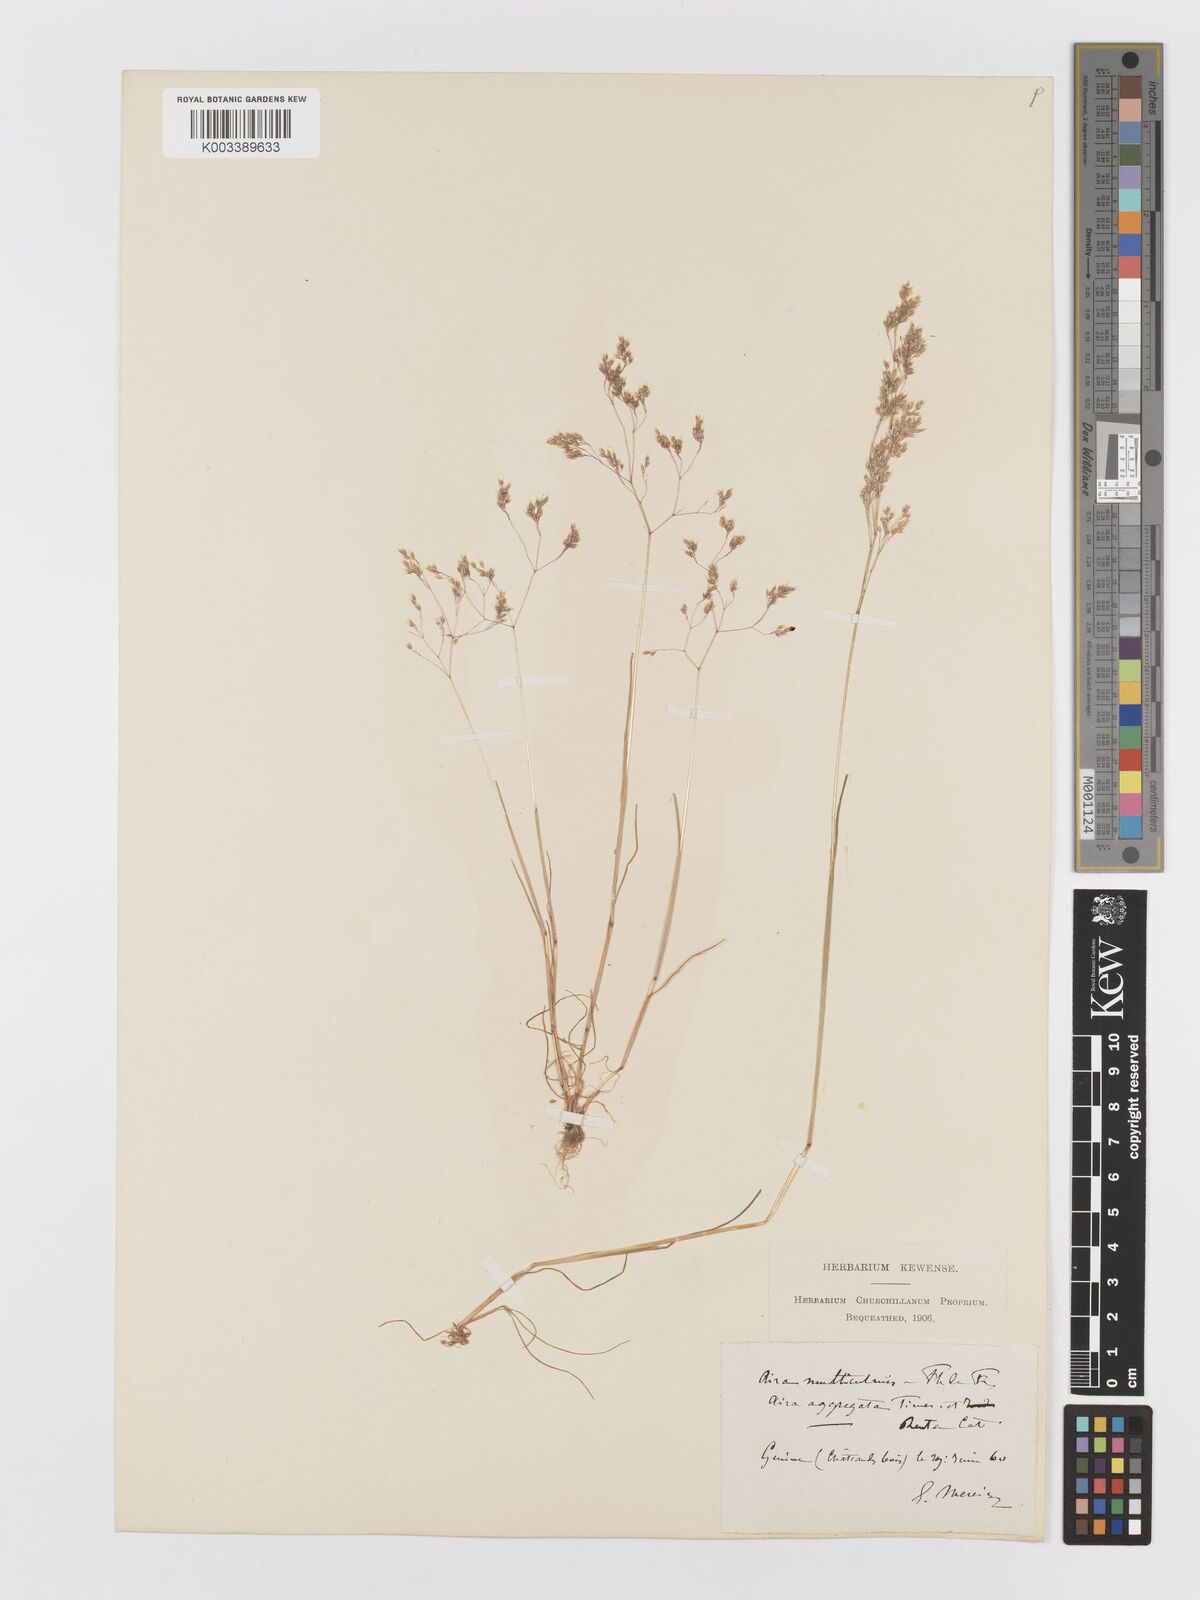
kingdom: Plantae
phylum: Tracheophyta
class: Liliopsida
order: Poales
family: Poaceae
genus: Aira
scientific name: Aira caryophyllea
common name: Silver hairgrass
